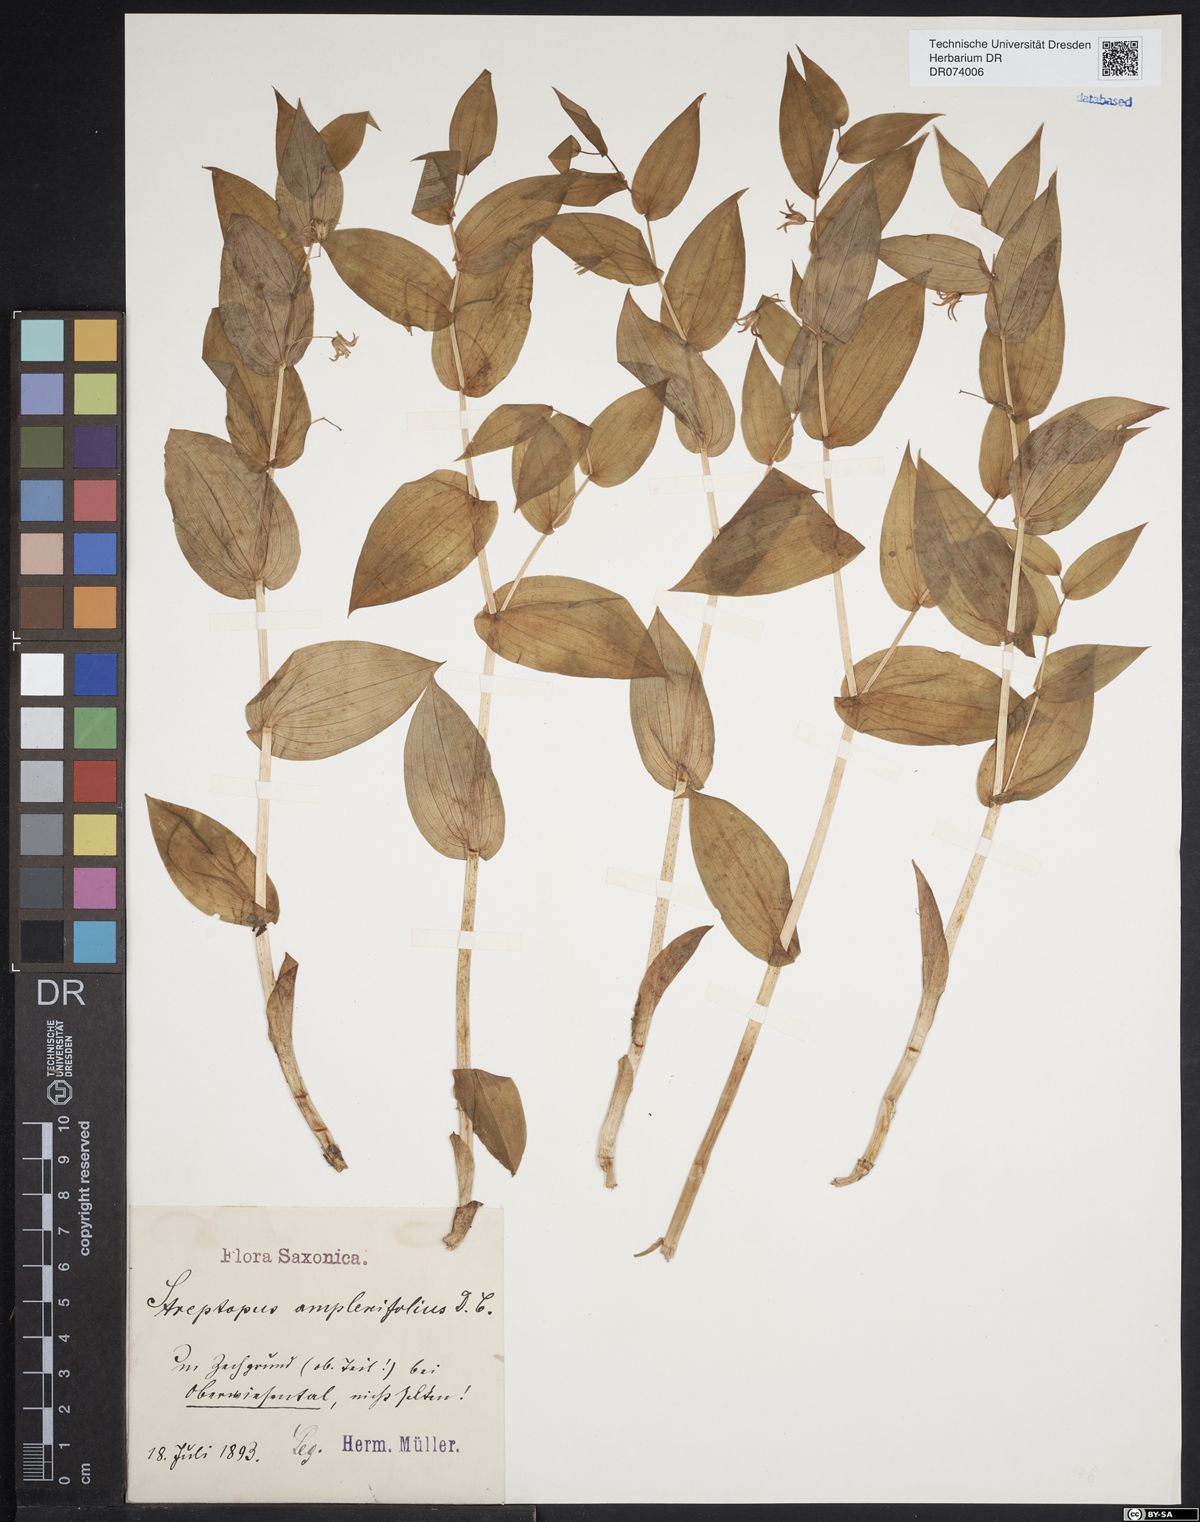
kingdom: Plantae
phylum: Tracheophyta
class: Liliopsida
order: Liliales
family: Liliaceae
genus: Streptopus
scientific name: Streptopus amplexifolius
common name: Clasp twisted stalk
